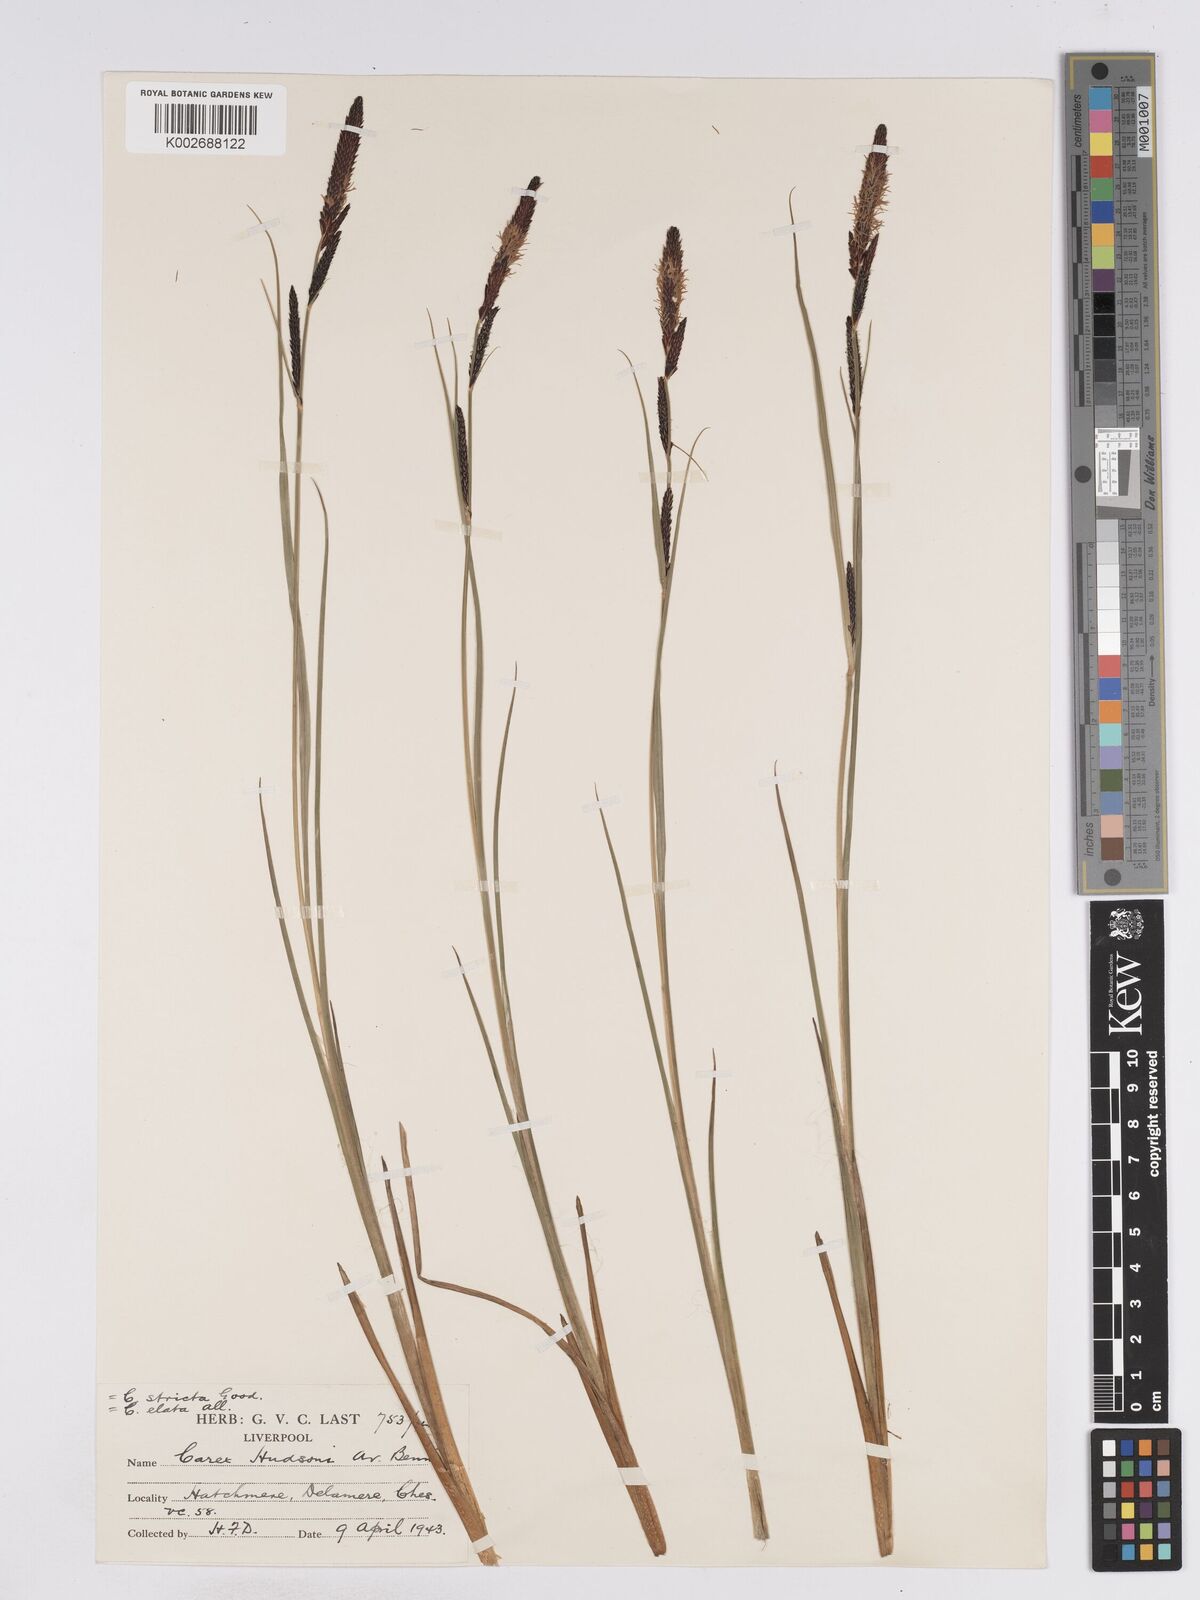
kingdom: Plantae
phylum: Tracheophyta
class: Liliopsida
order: Poales
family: Cyperaceae
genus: Carex
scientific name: Carex elata
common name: Tufted sedge
